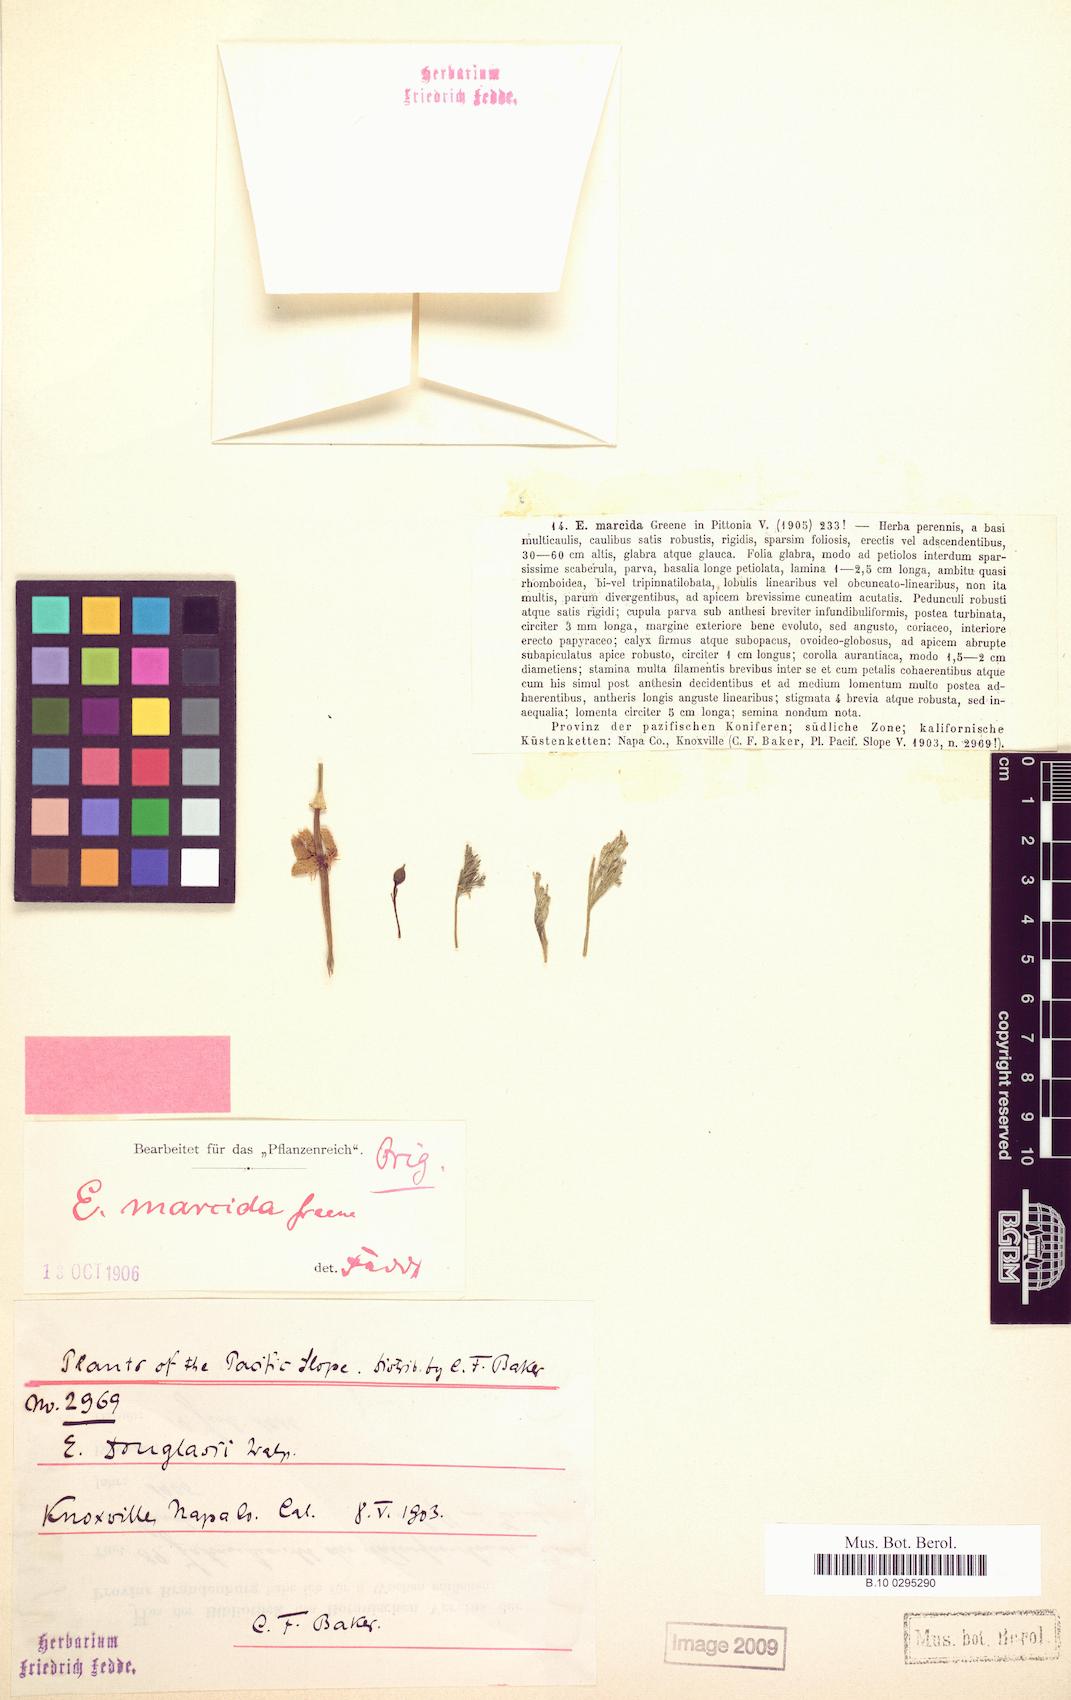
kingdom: Plantae
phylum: Tracheophyta
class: Magnoliopsida
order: Ranunculales
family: Papaveraceae
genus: Eschscholzia
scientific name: Eschscholzia californica
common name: California poppy
